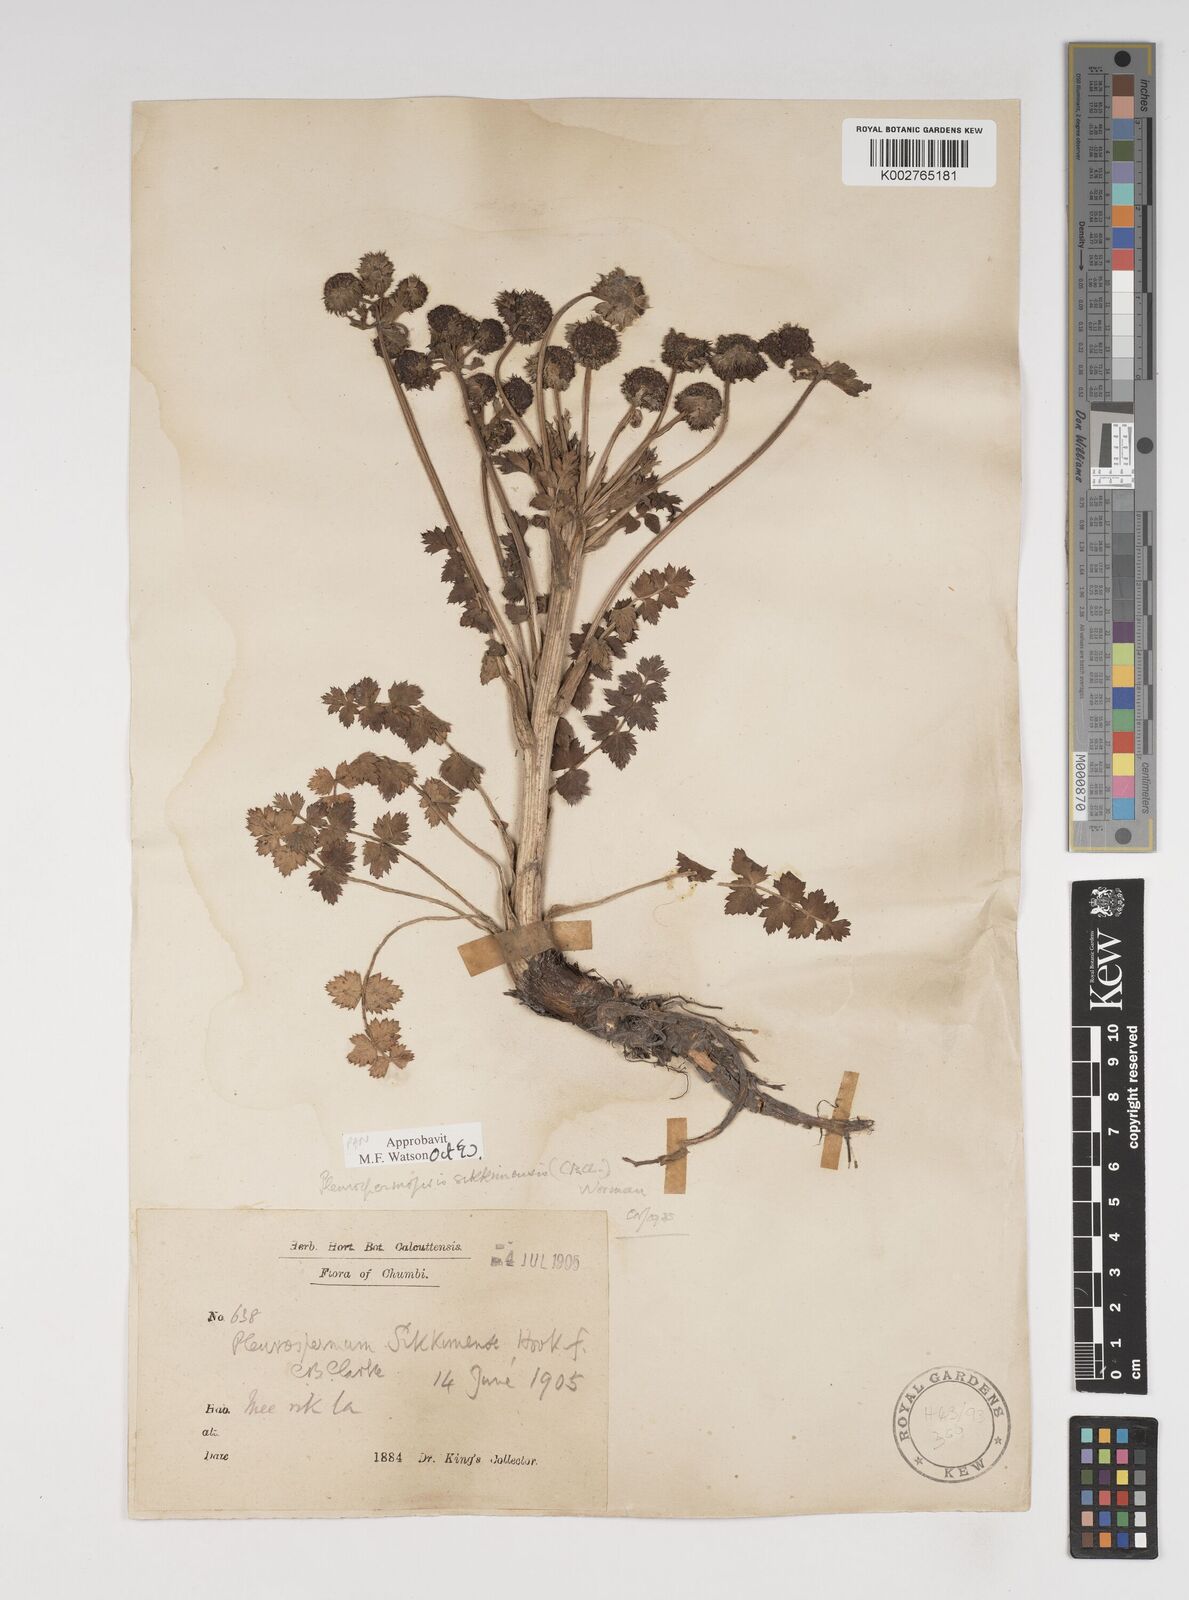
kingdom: Plantae
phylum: Tracheophyta
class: Magnoliopsida
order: Apiales
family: Apiaceae
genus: Pleurospermopsis
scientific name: Pleurospermopsis sikkimensis
